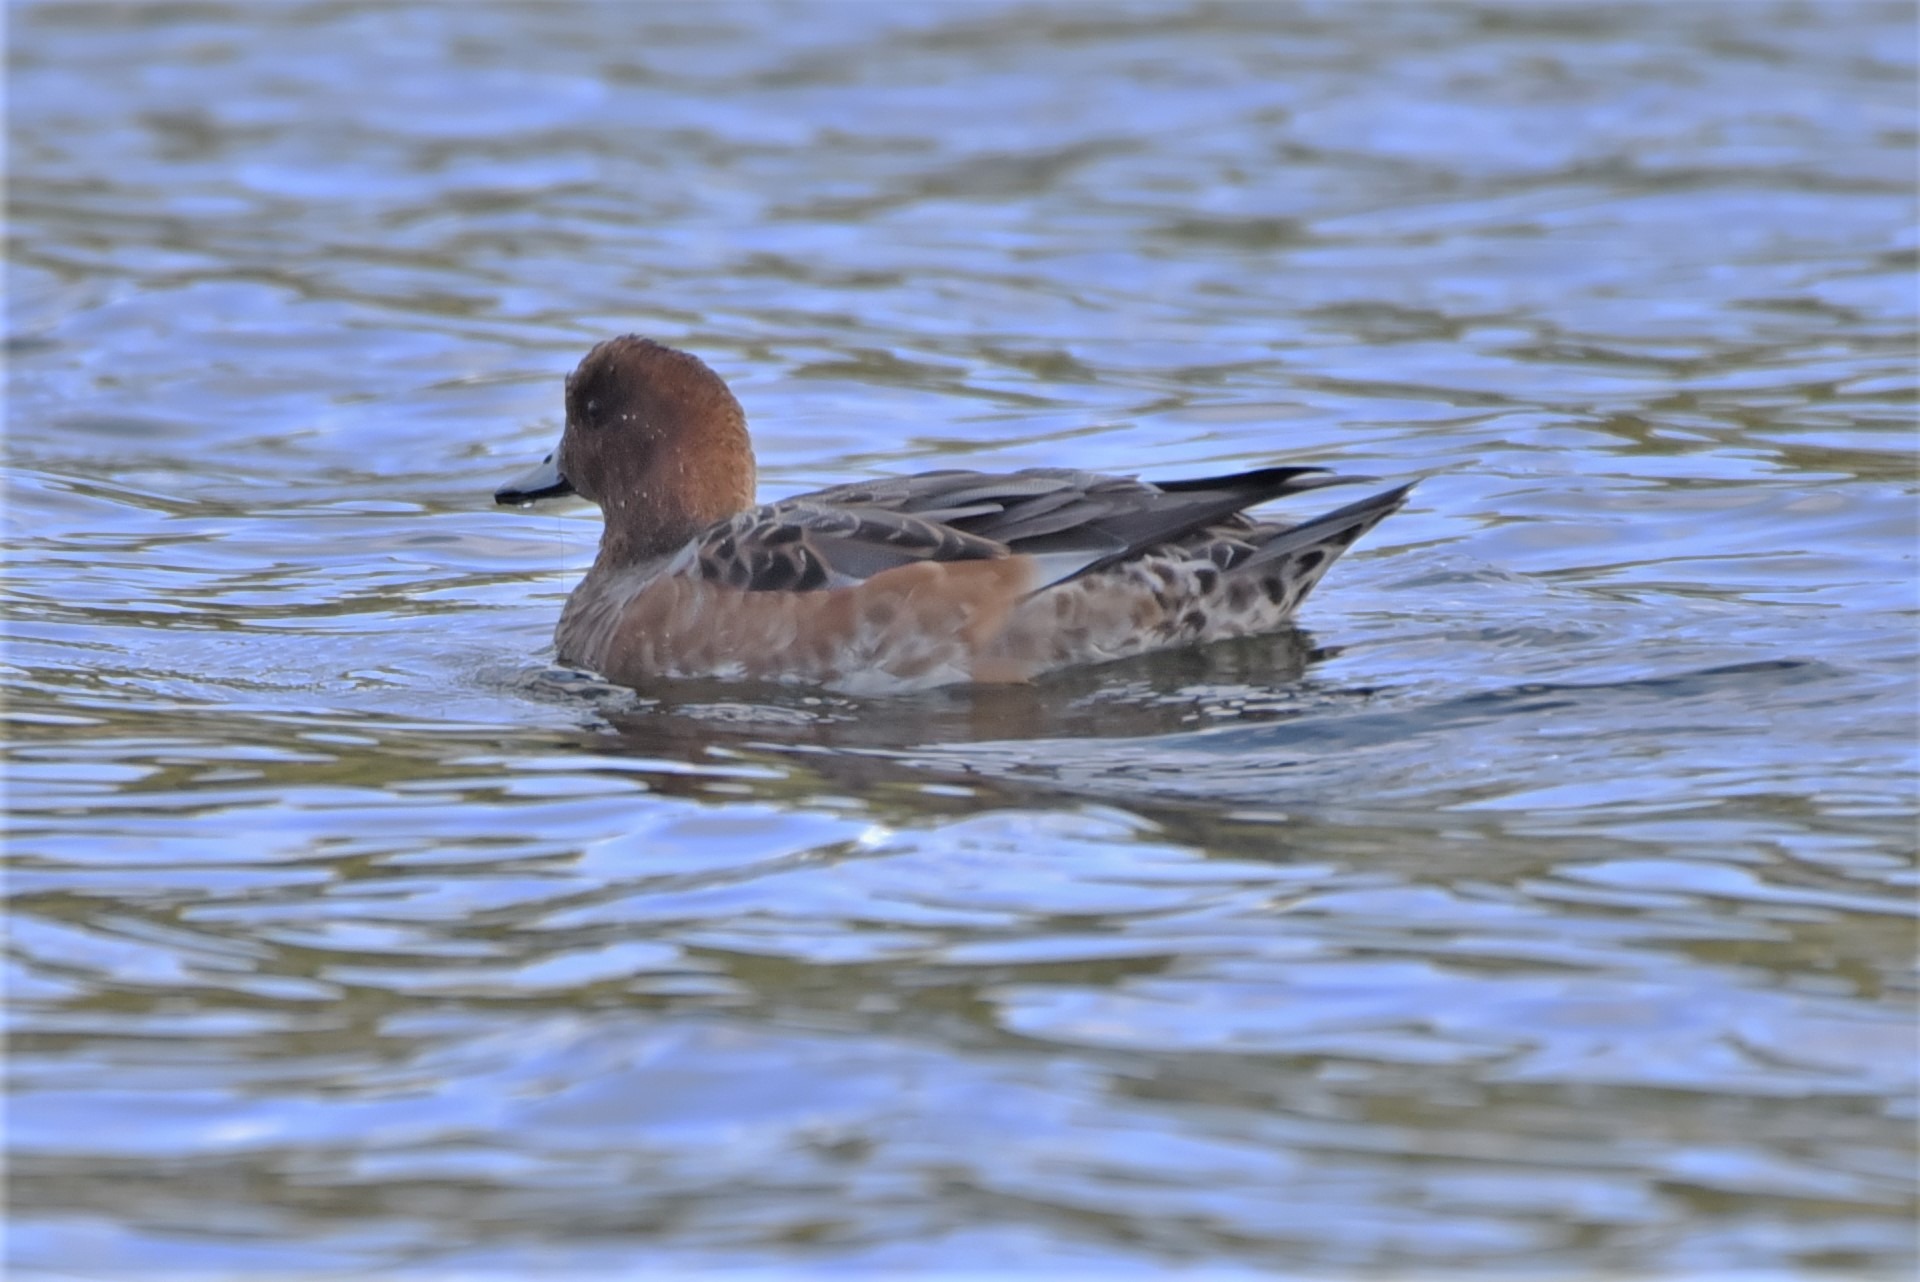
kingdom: Animalia
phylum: Chordata
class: Aves
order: Anseriformes
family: Anatidae
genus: Mareca
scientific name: Mareca penelope
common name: Pibeand
